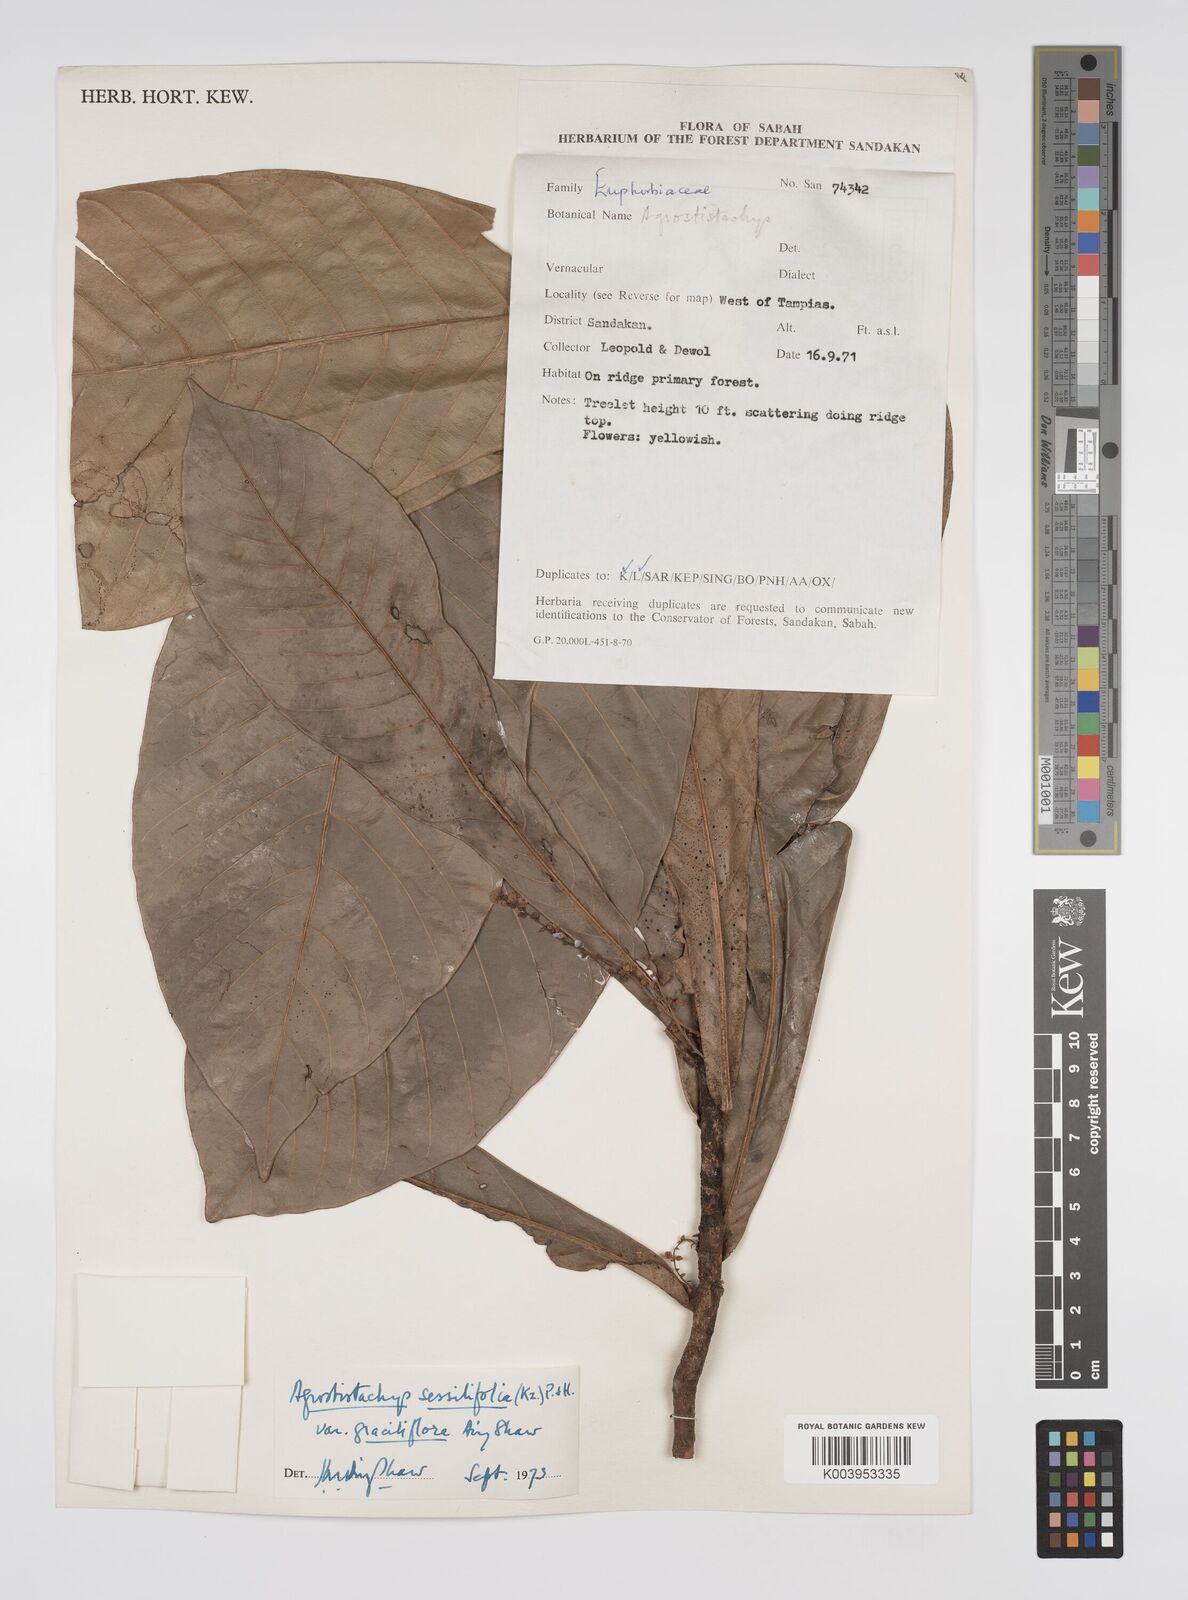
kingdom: Plantae
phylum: Tracheophyta
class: Magnoliopsida
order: Malpighiales
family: Euphorbiaceae
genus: Agrostistachys
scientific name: Agrostistachys sessilifolia
